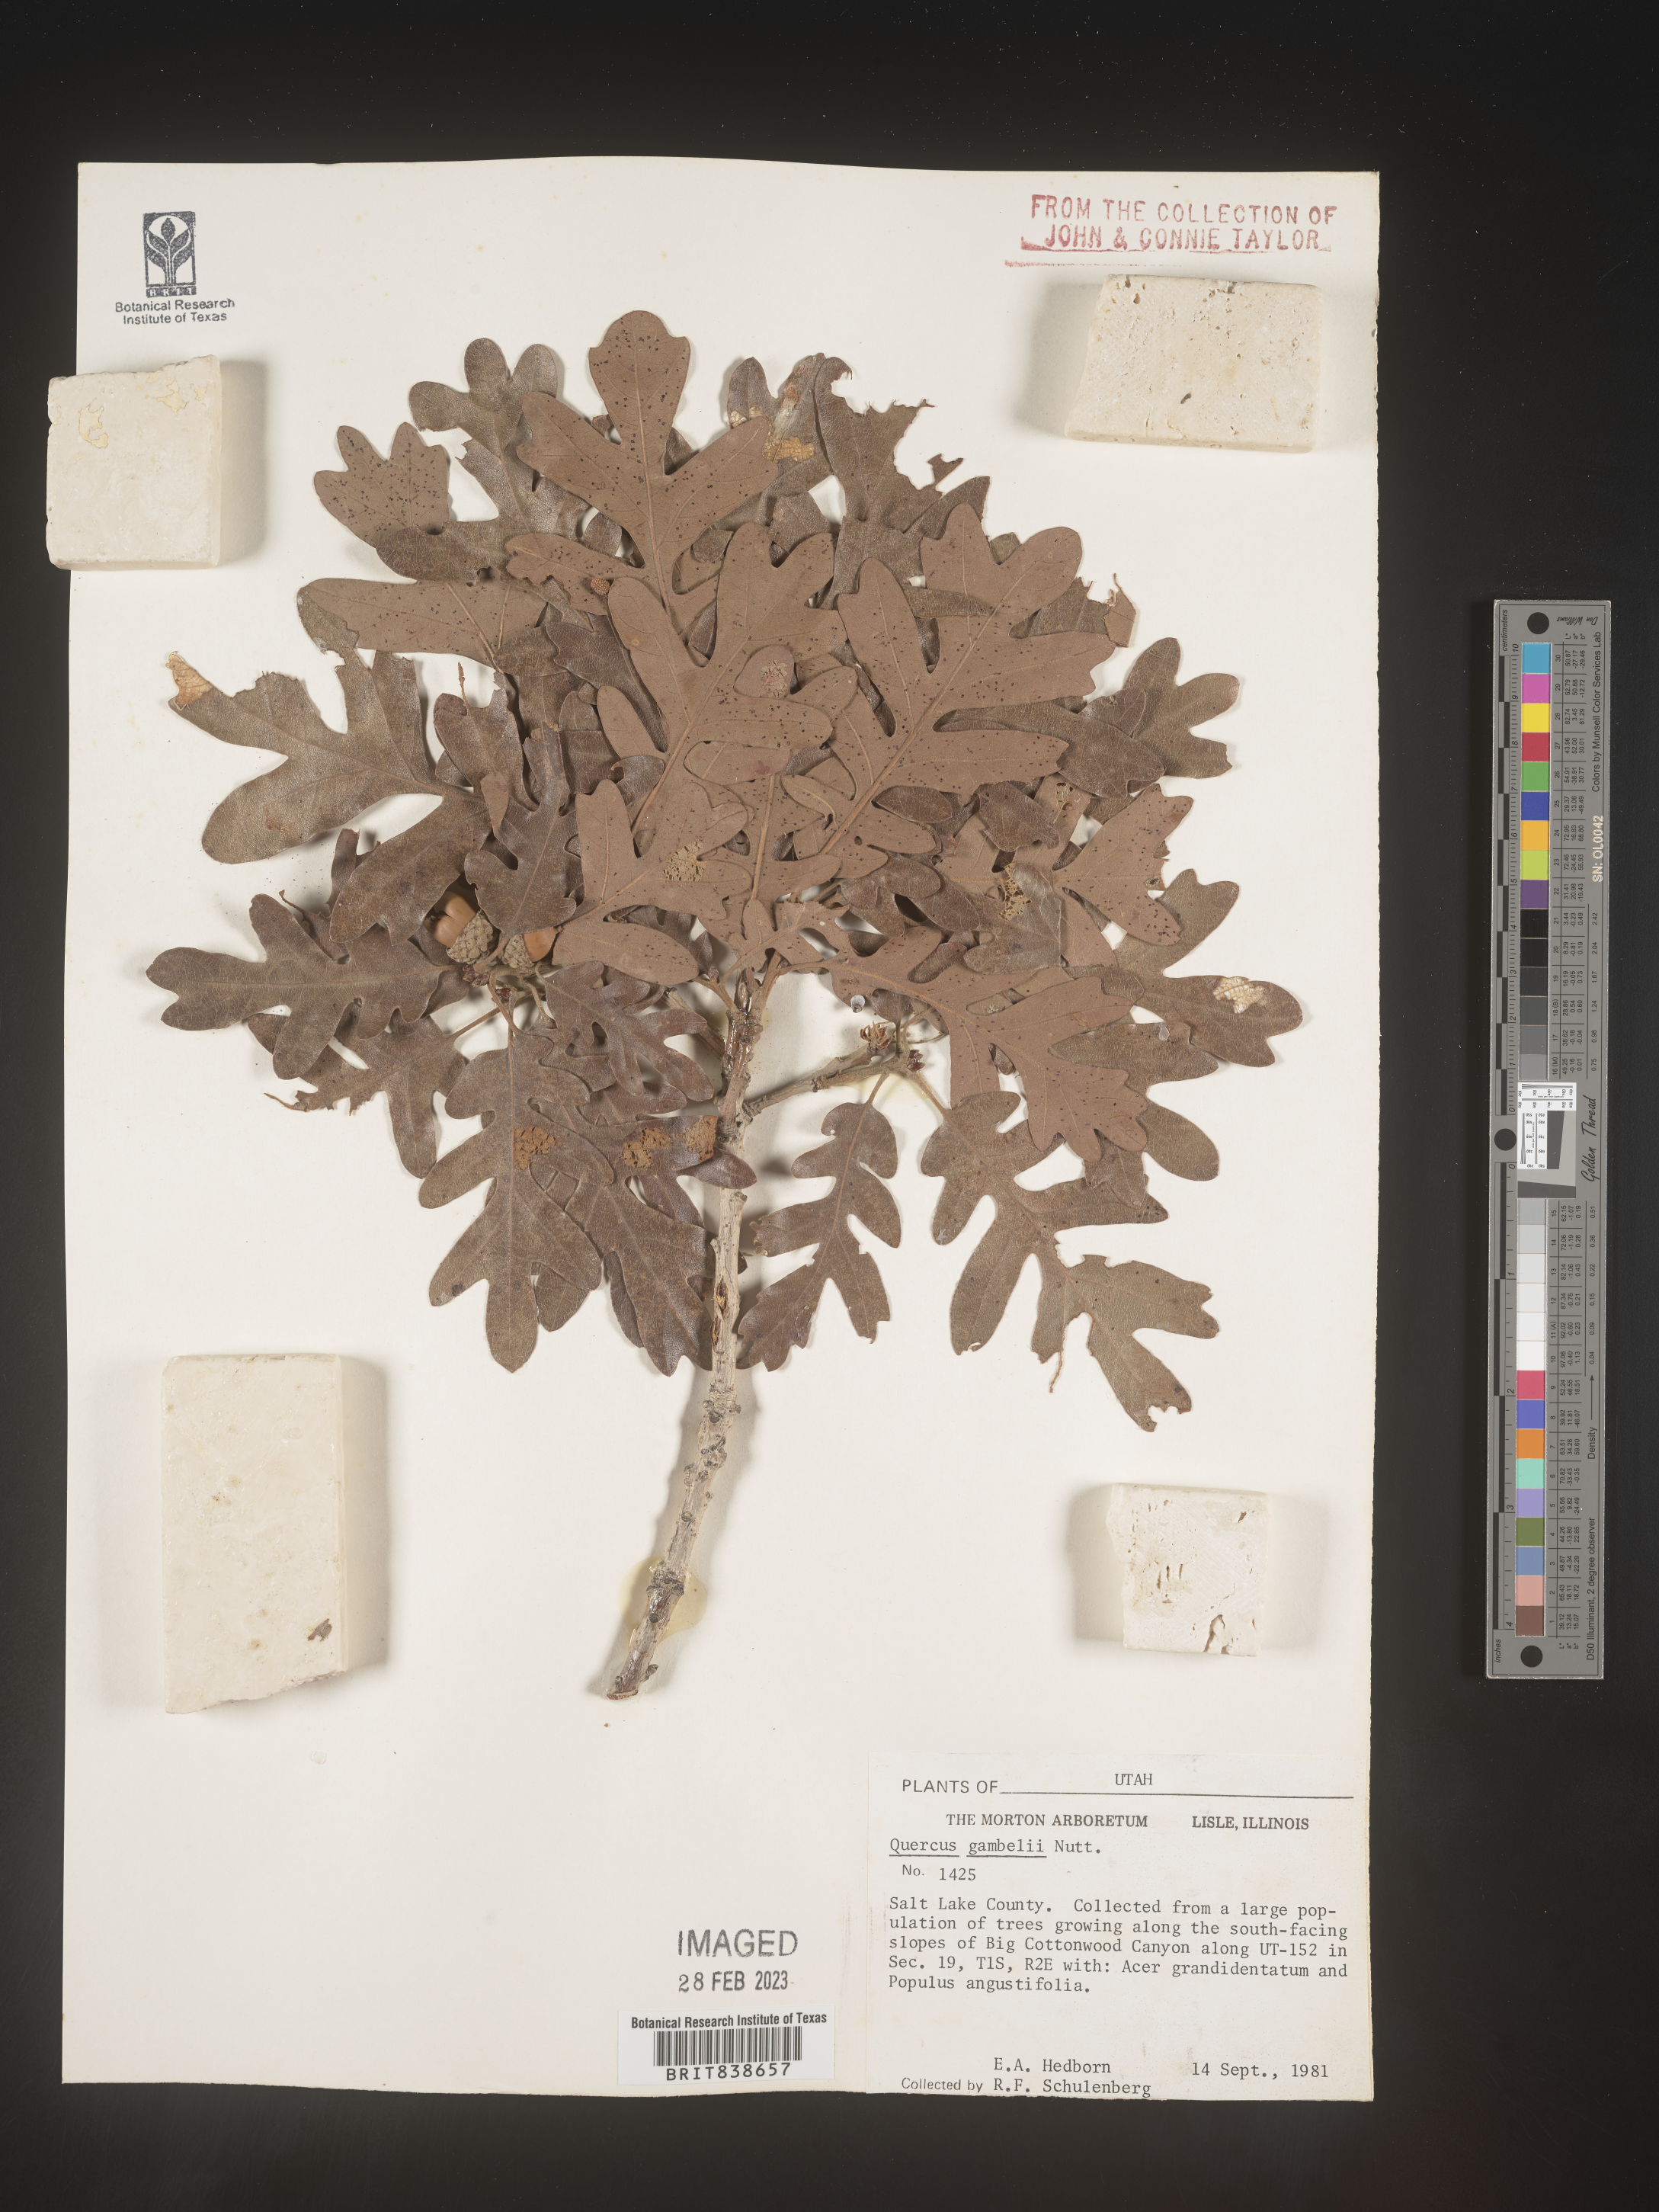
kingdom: Plantae
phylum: Tracheophyta
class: Magnoliopsida
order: Fagales
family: Fagaceae
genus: Quercus
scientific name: Quercus gambelii
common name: Gambel oak
